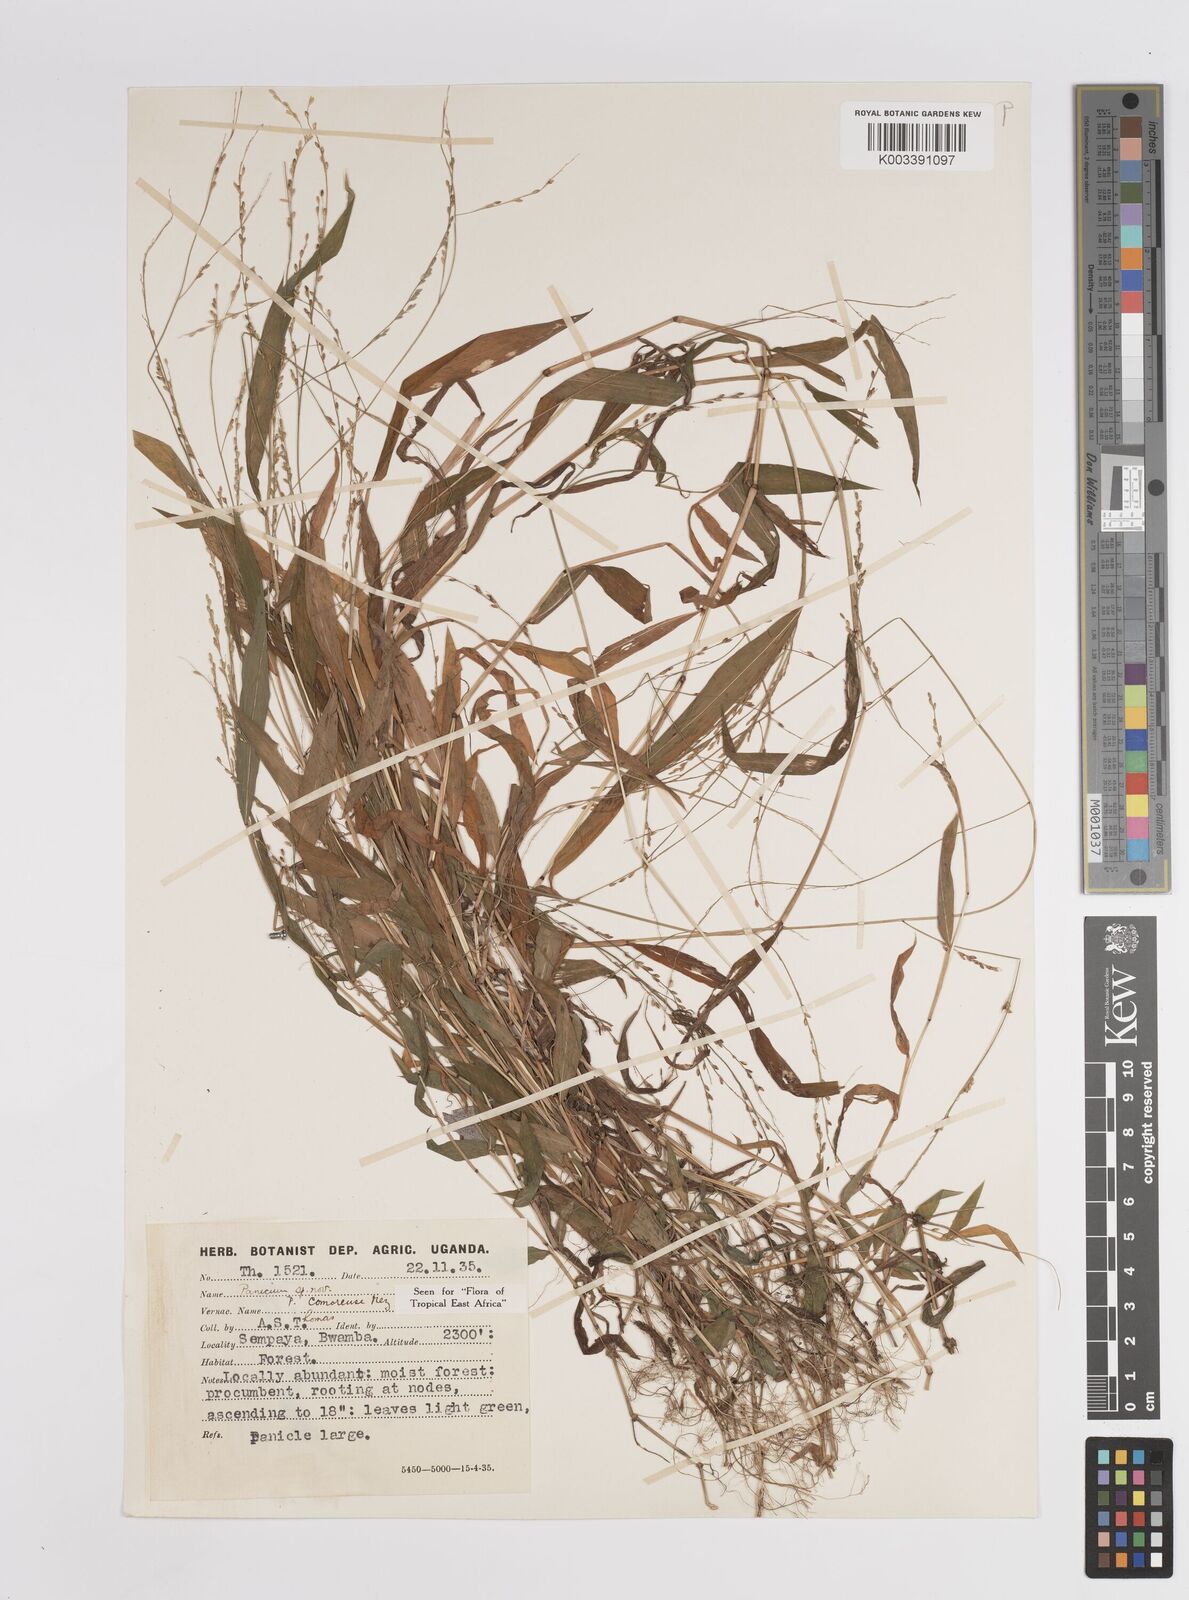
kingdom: Plantae
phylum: Tracheophyta
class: Liliopsida
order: Poales
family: Poaceae
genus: Panicum
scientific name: Panicum comorense
